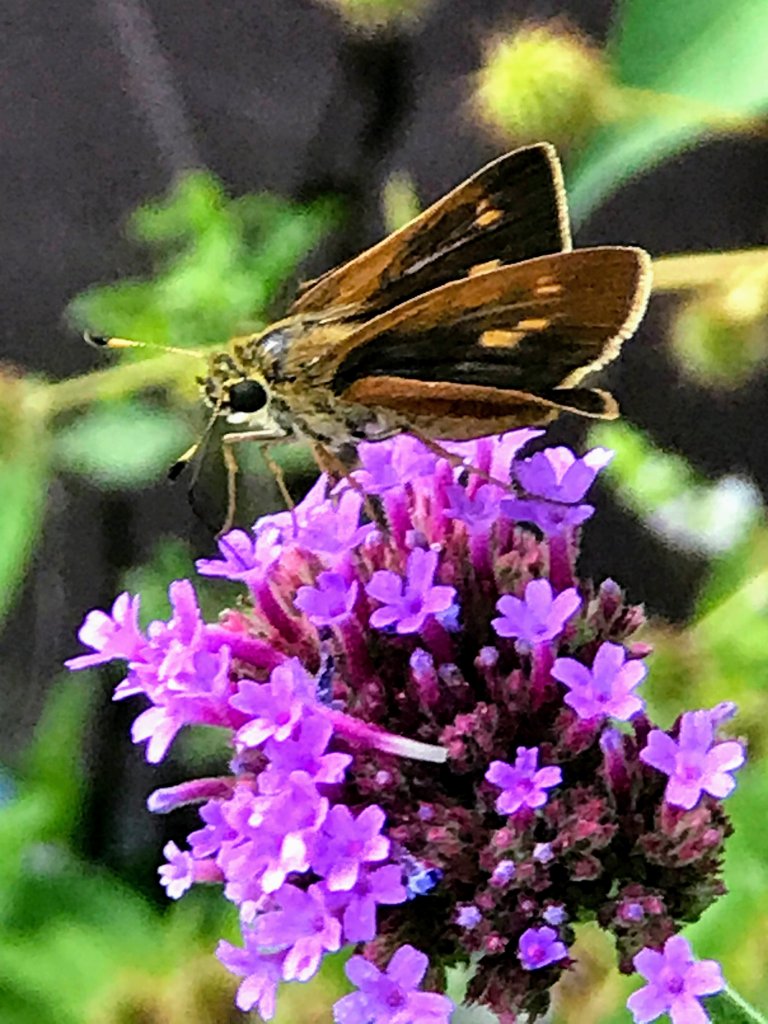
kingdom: Animalia
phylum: Arthropoda
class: Insecta
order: Lepidoptera
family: Hesperiidae
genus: Wallengrenia
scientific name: Wallengrenia otho
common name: Southern Broken-Dash
